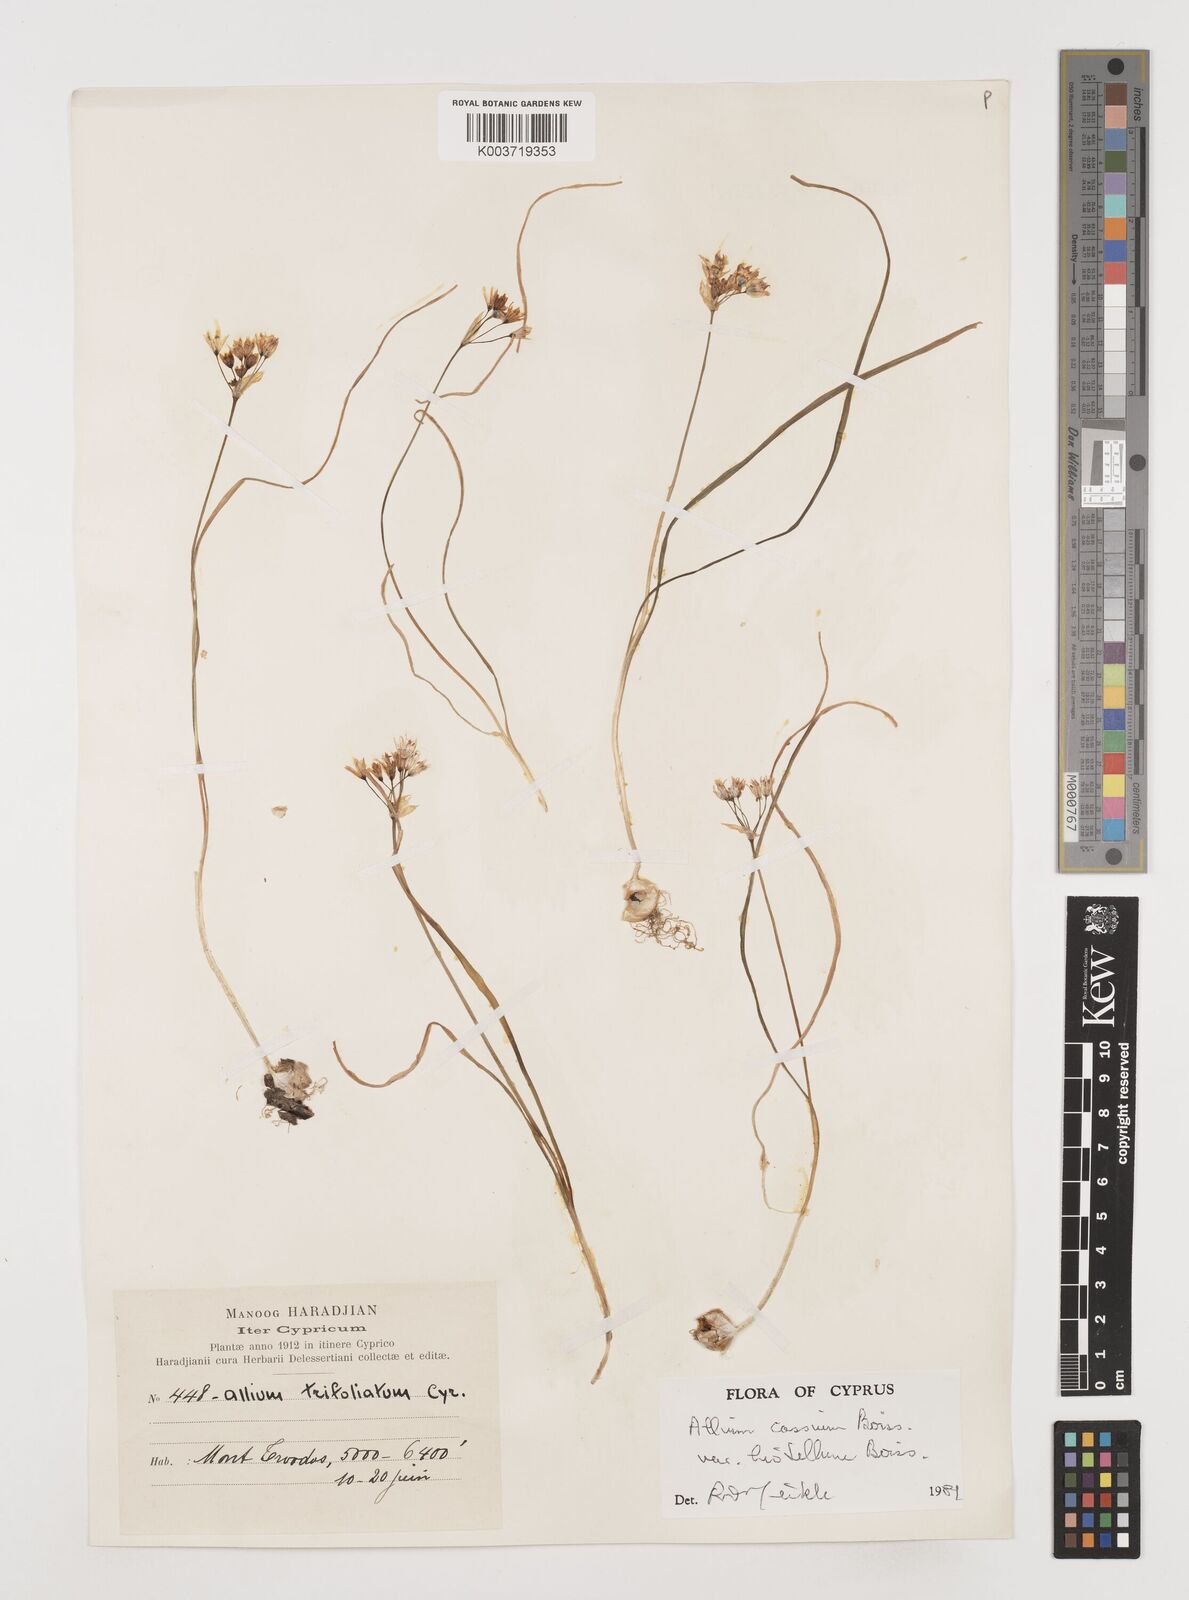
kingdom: Plantae
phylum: Tracheophyta
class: Liliopsida
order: Asparagales
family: Amaryllidaceae
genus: Allium
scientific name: Allium cassium
